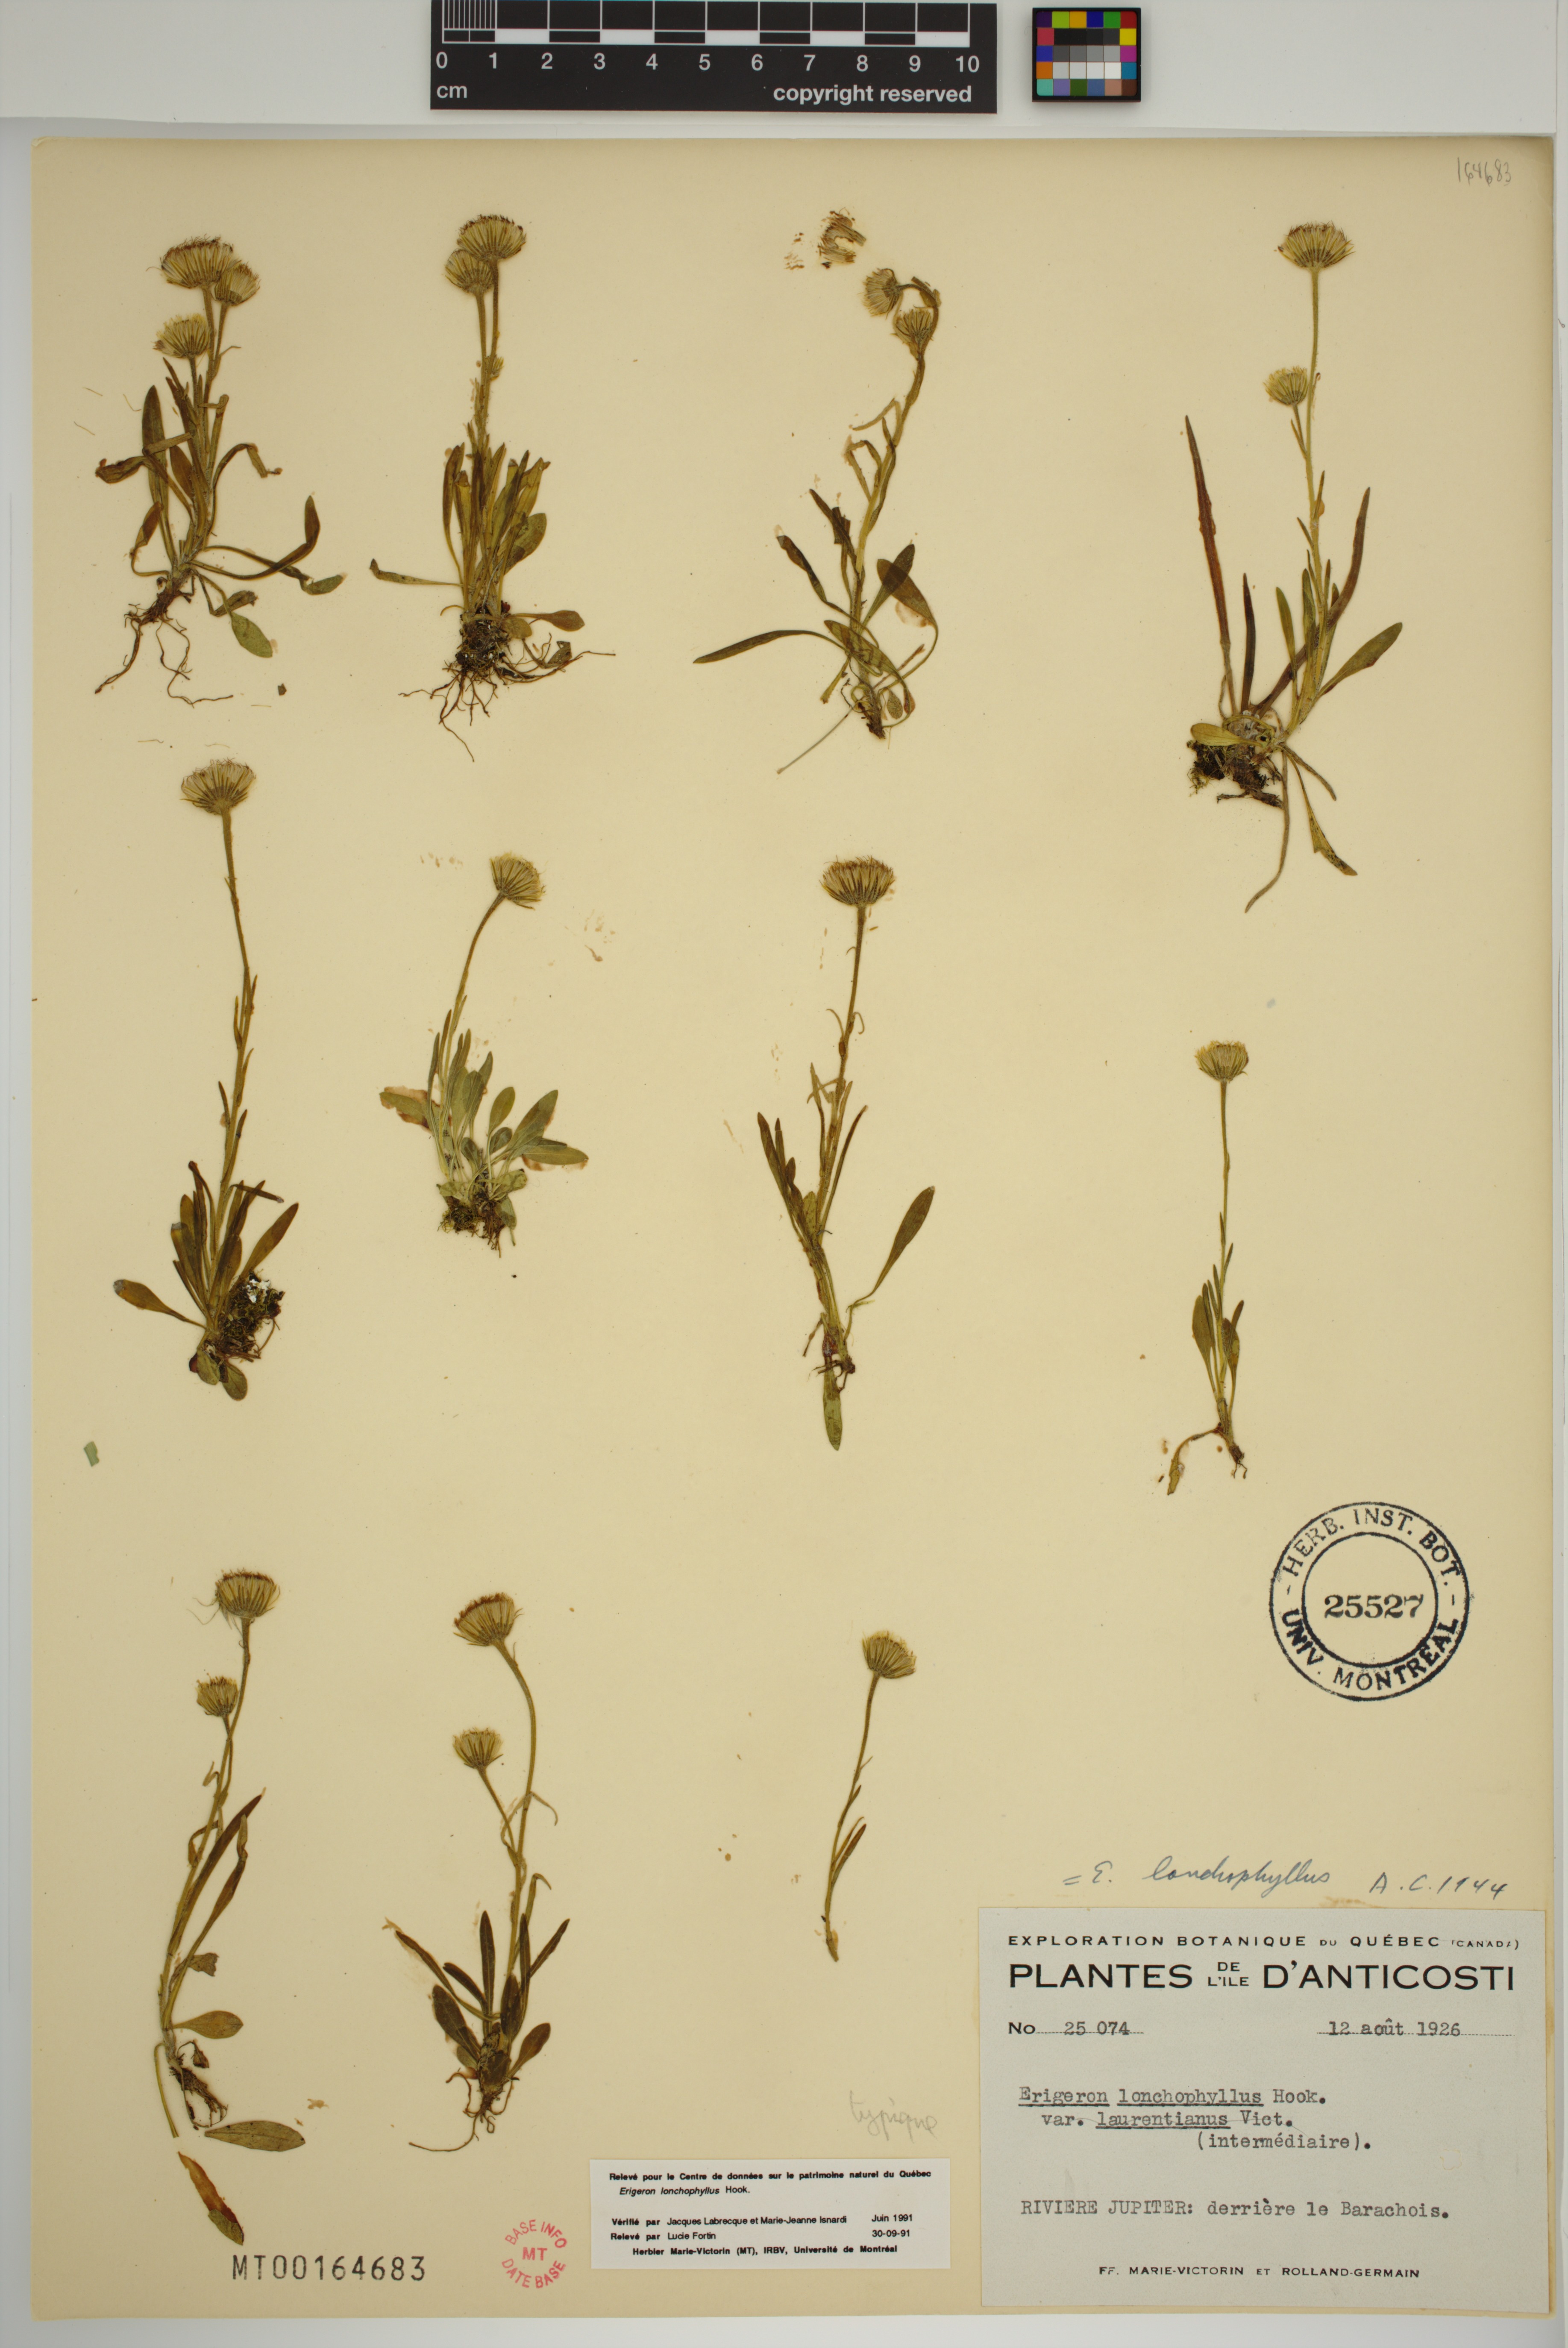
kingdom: Plantae
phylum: Tracheophyta
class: Magnoliopsida
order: Asterales
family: Asteraceae
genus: Erigeron
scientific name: Erigeron lonchophyllus
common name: Short-ray fleabane
